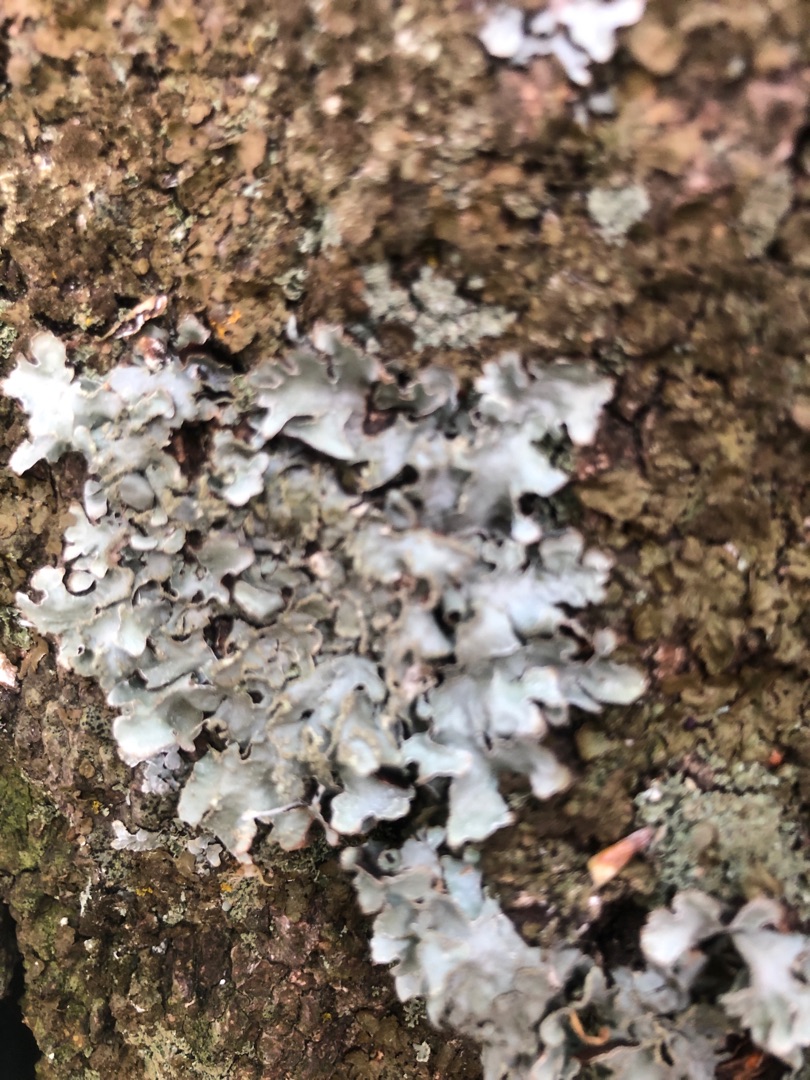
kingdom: Fungi
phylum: Ascomycota
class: Lecanoromycetes
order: Lecanorales
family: Parmeliaceae
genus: Parmelia
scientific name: Parmelia sulcata
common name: Rynket skållav
